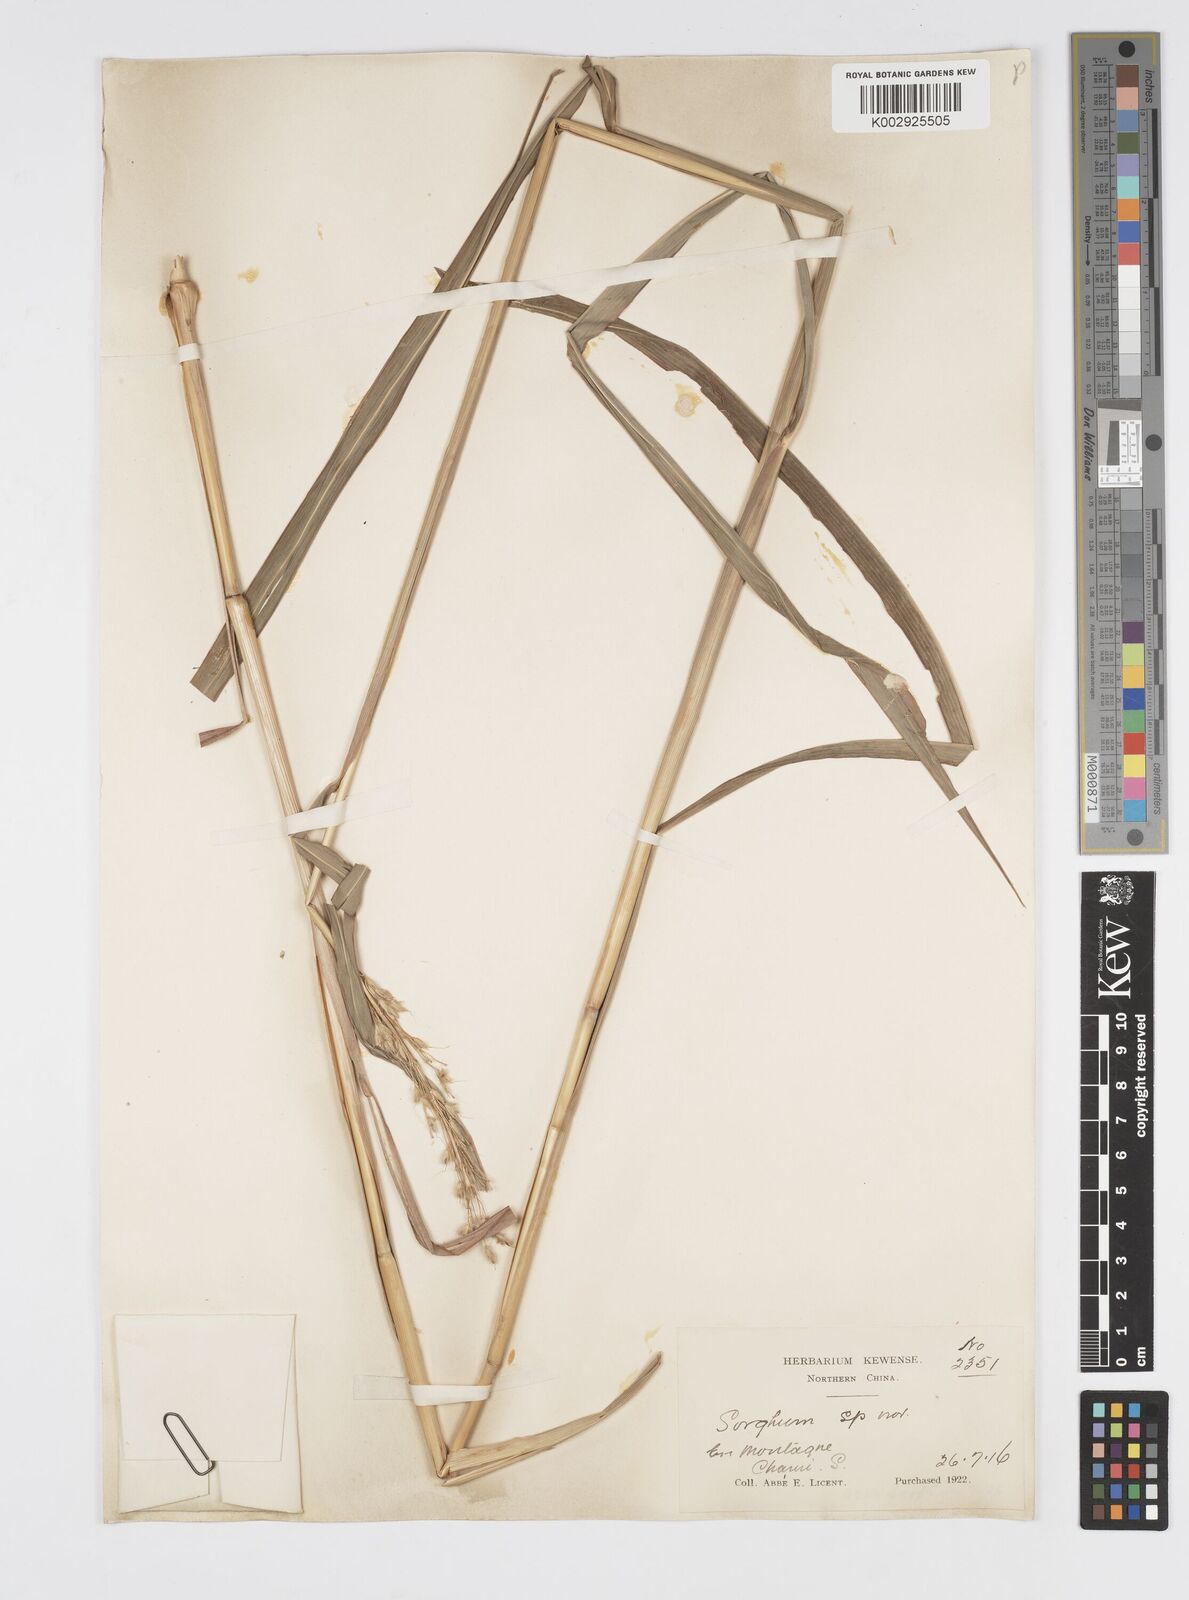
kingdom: Plantae
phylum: Tracheophyta
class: Liliopsida
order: Poales
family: Poaceae
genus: Spodiopogon
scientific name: Spodiopogon sibiricus
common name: Siberian graybeard
